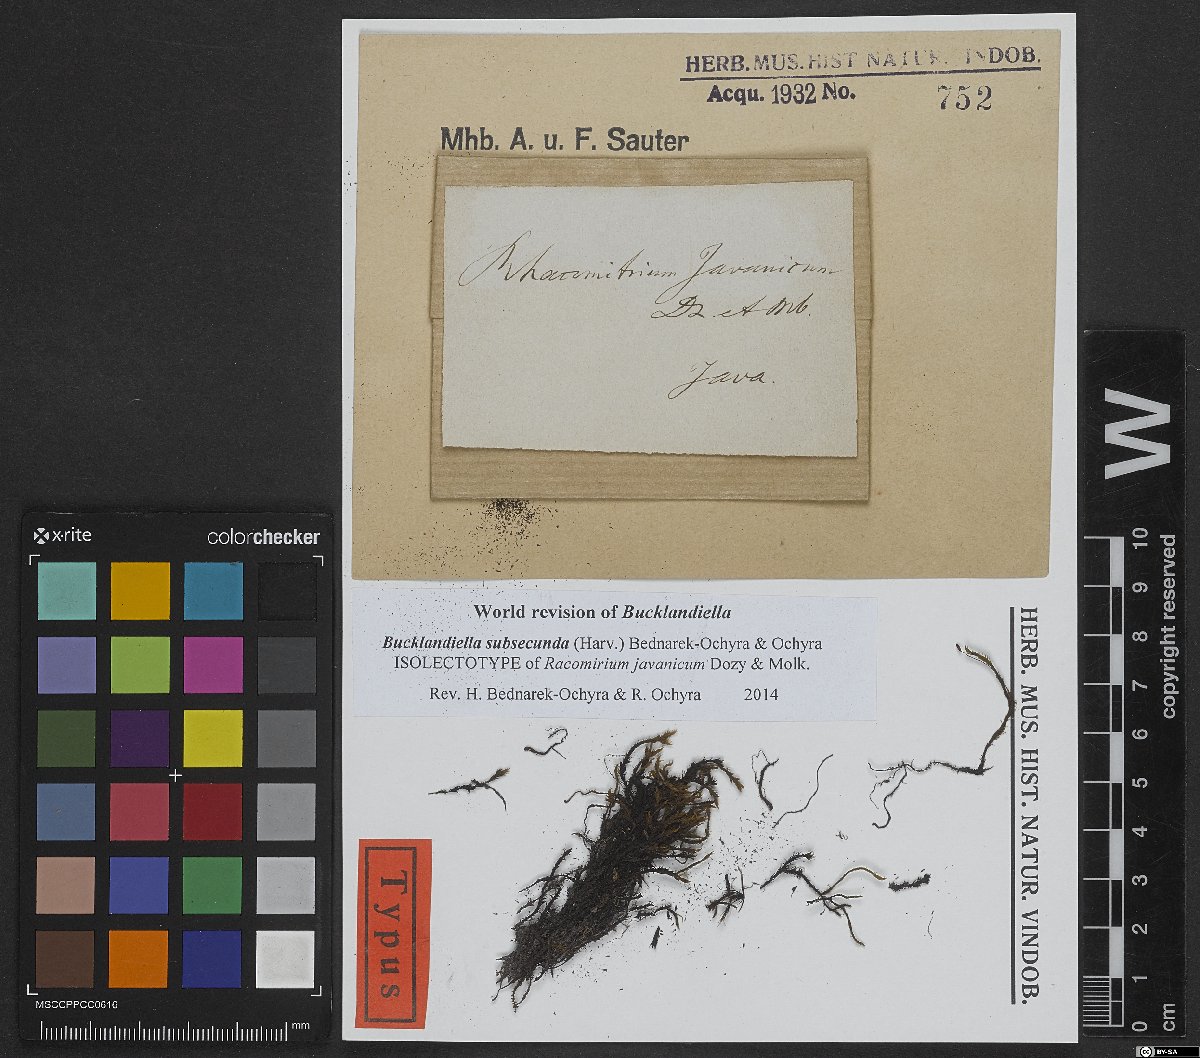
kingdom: Plantae
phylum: Bryophyta
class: Bryopsida
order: Grimmiales
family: Grimmiaceae
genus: Bucklandiella
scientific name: Bucklandiella subsecunda
